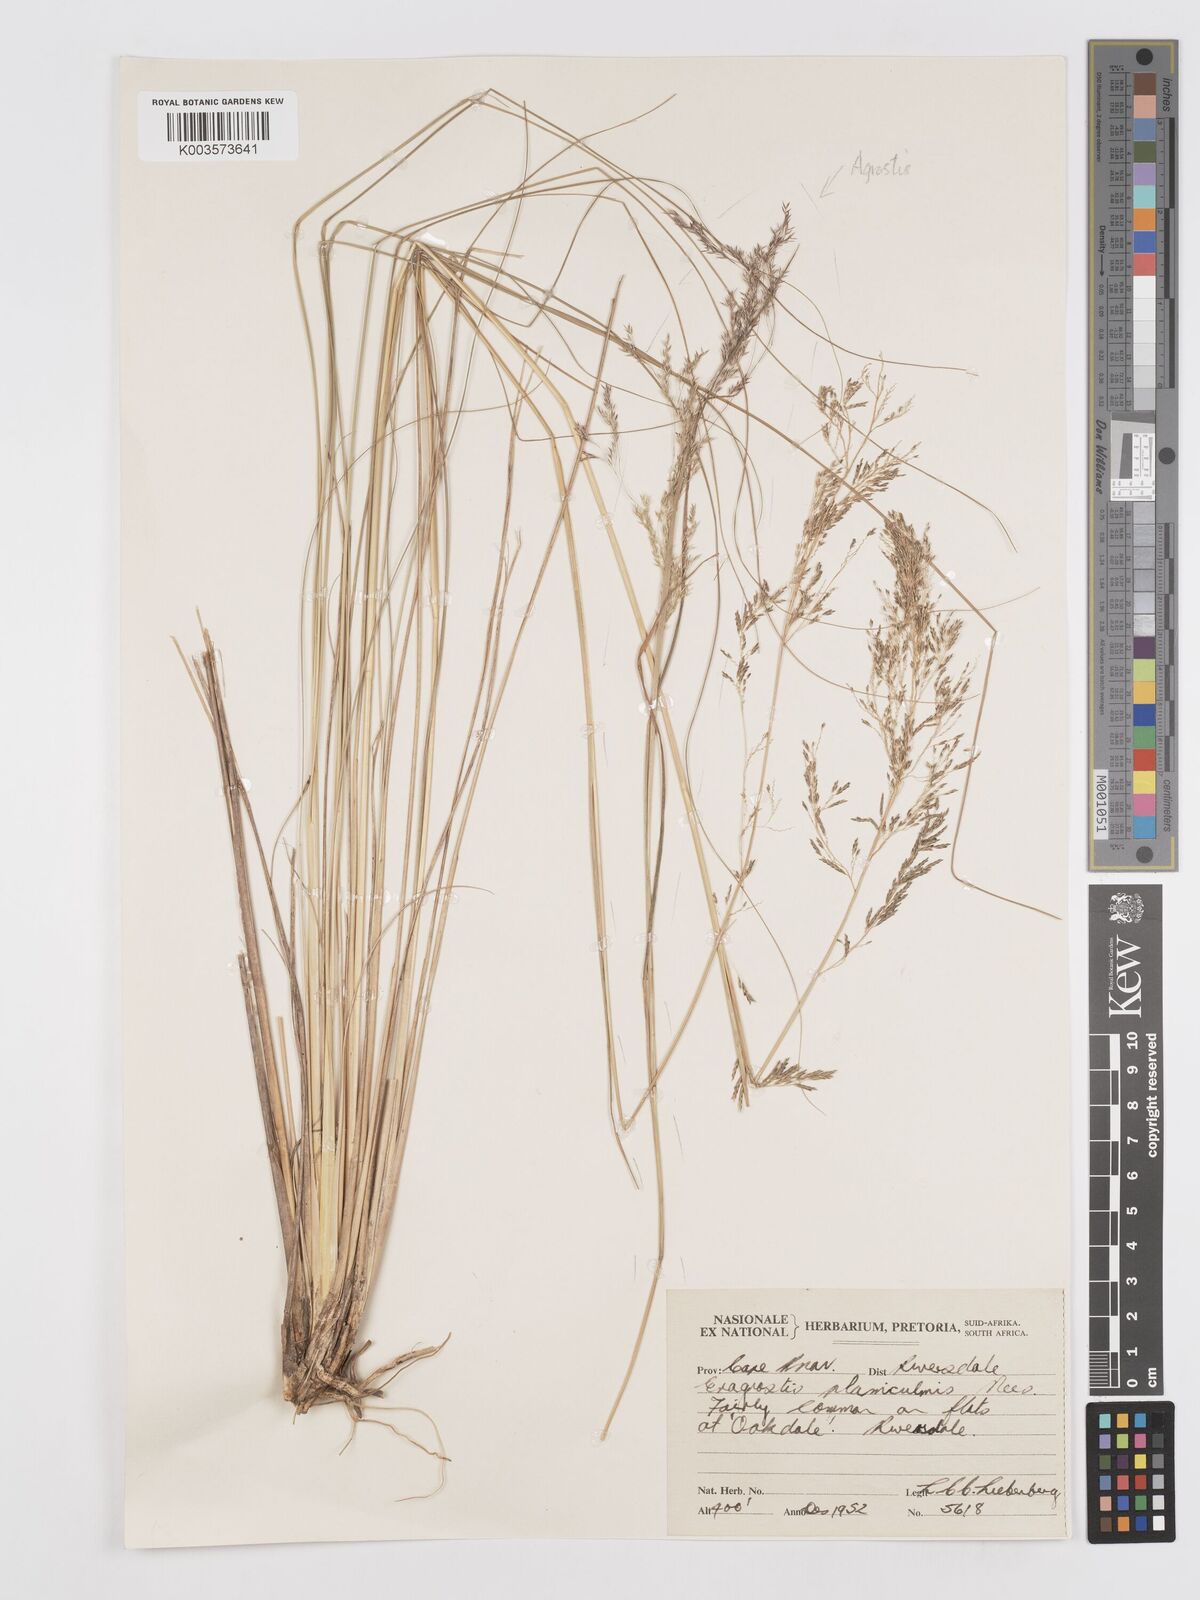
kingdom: Plantae
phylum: Tracheophyta
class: Liliopsida
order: Poales
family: Poaceae
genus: Eragrostis
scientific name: Eragrostis planiculmis
